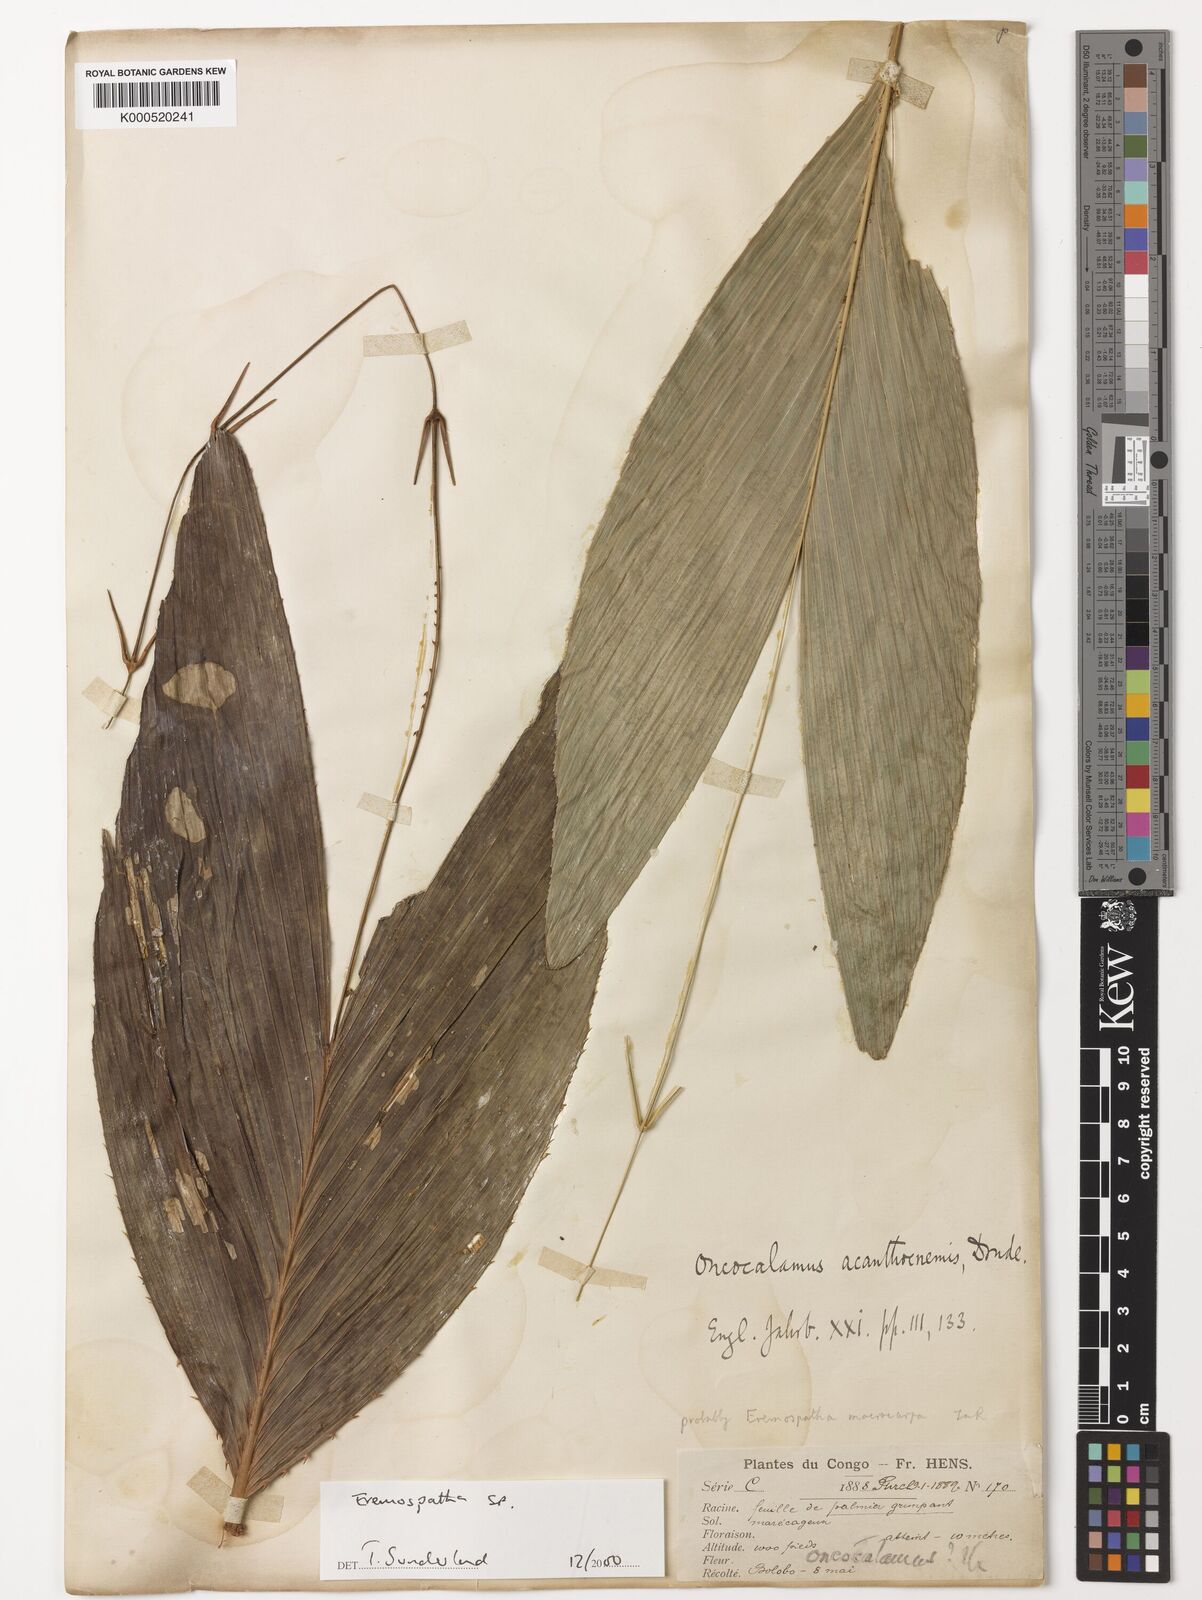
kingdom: Plantae
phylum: Tracheophyta
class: Liliopsida
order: Arecales
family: Arecaceae
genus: Eremospatha
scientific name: Eremospatha
